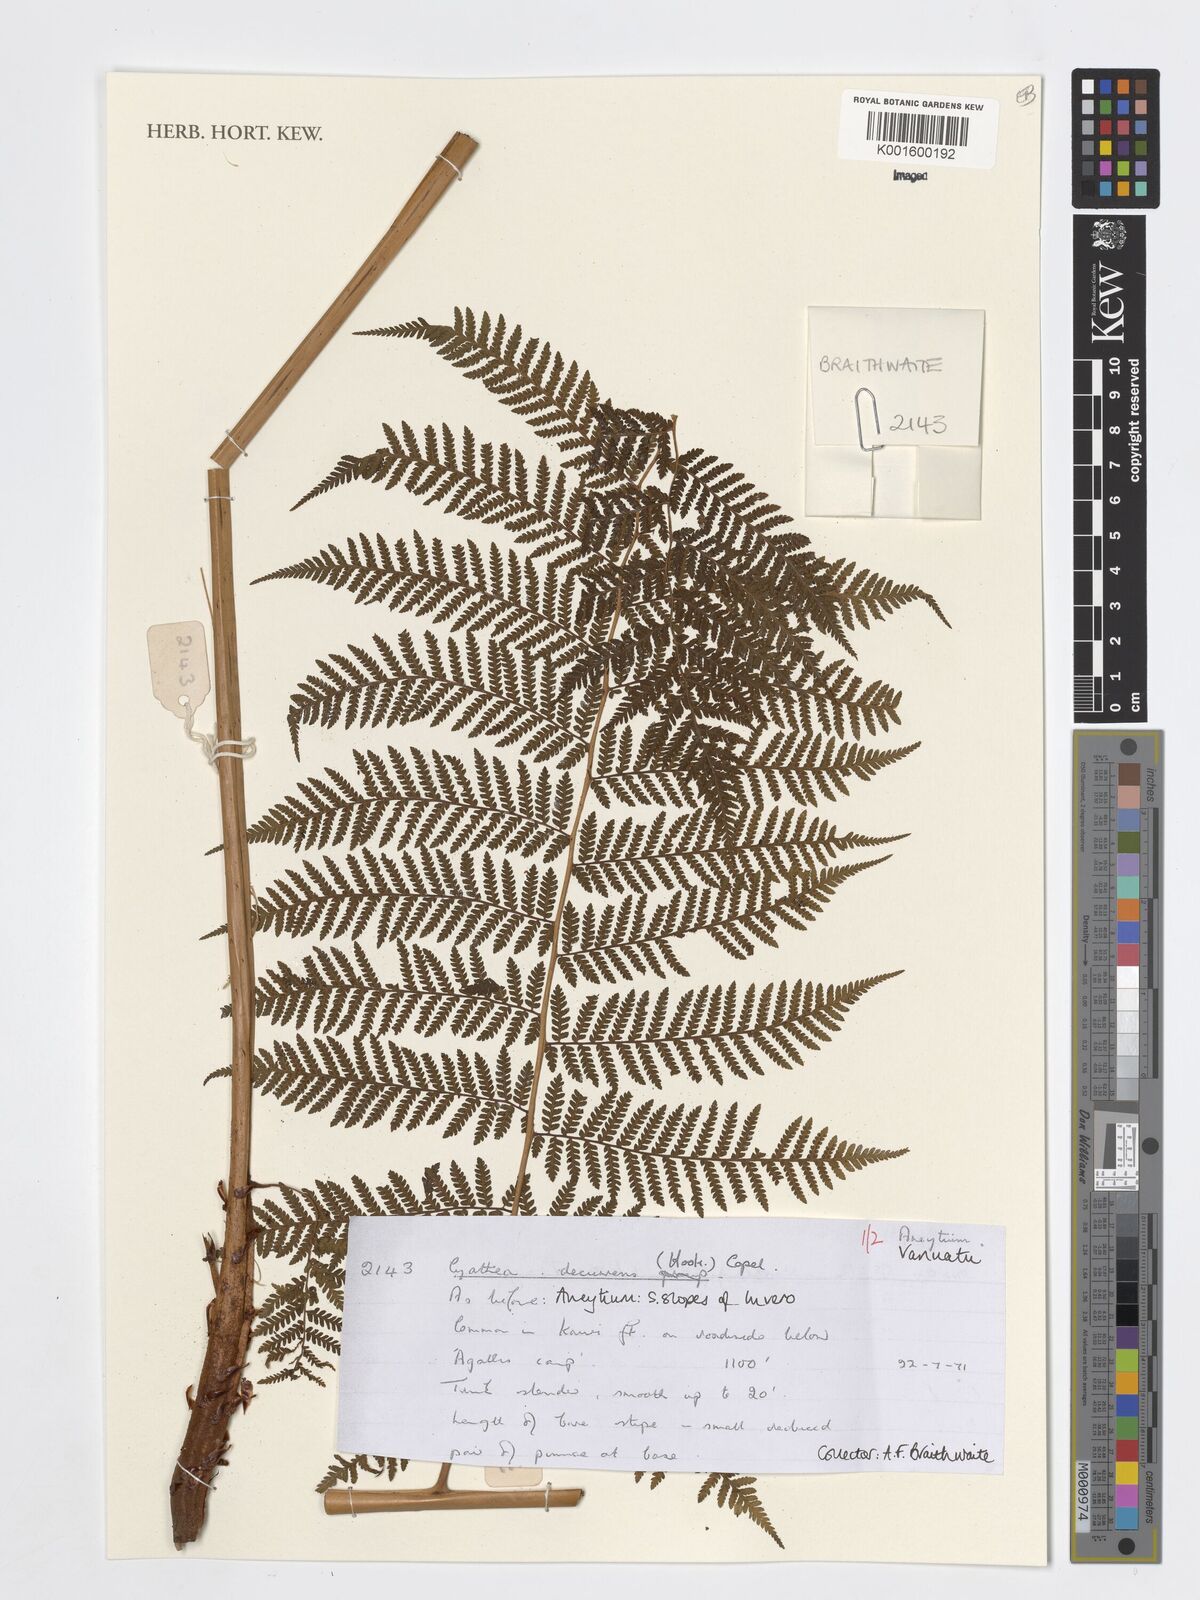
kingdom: Plantae
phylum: Tracheophyta
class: Polypodiopsida
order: Cyatheales
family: Cyatheaceae
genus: Cyathea
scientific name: Cyathea decurrens
